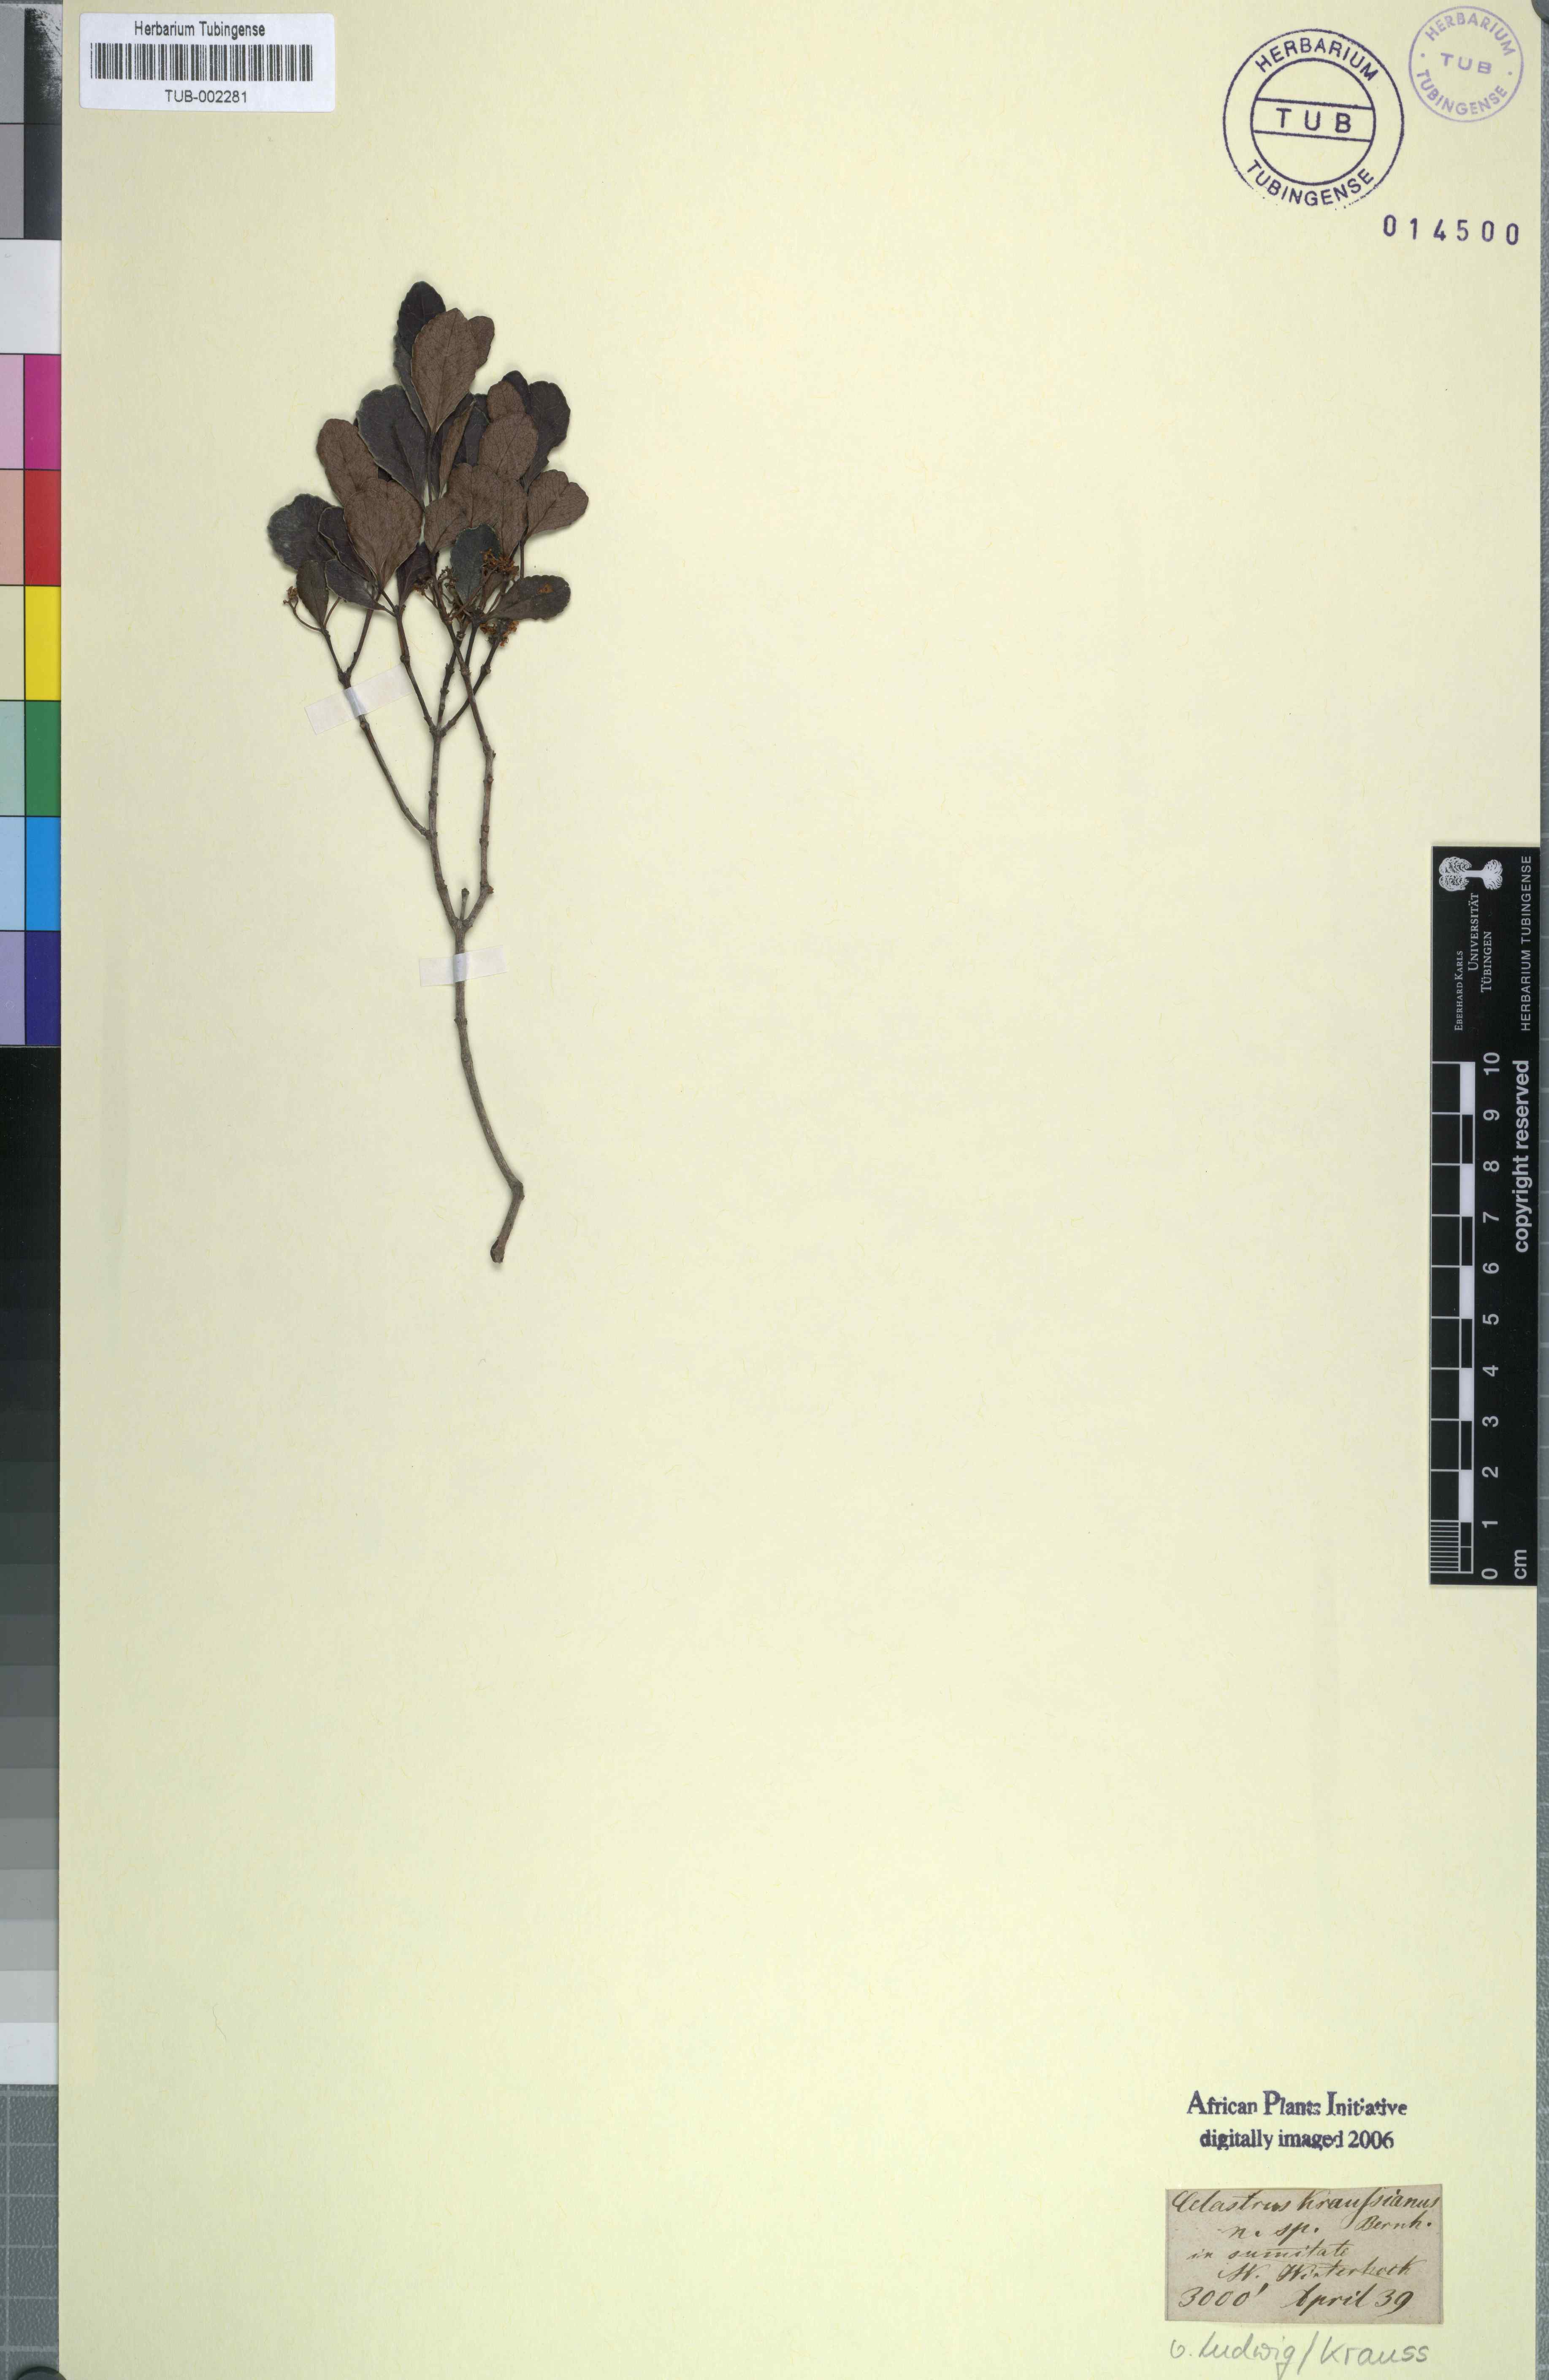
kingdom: Plantae
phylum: Tracheophyta
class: Magnoliopsida
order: Celastrales
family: Celastraceae
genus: Celastrus
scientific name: Celastrus
